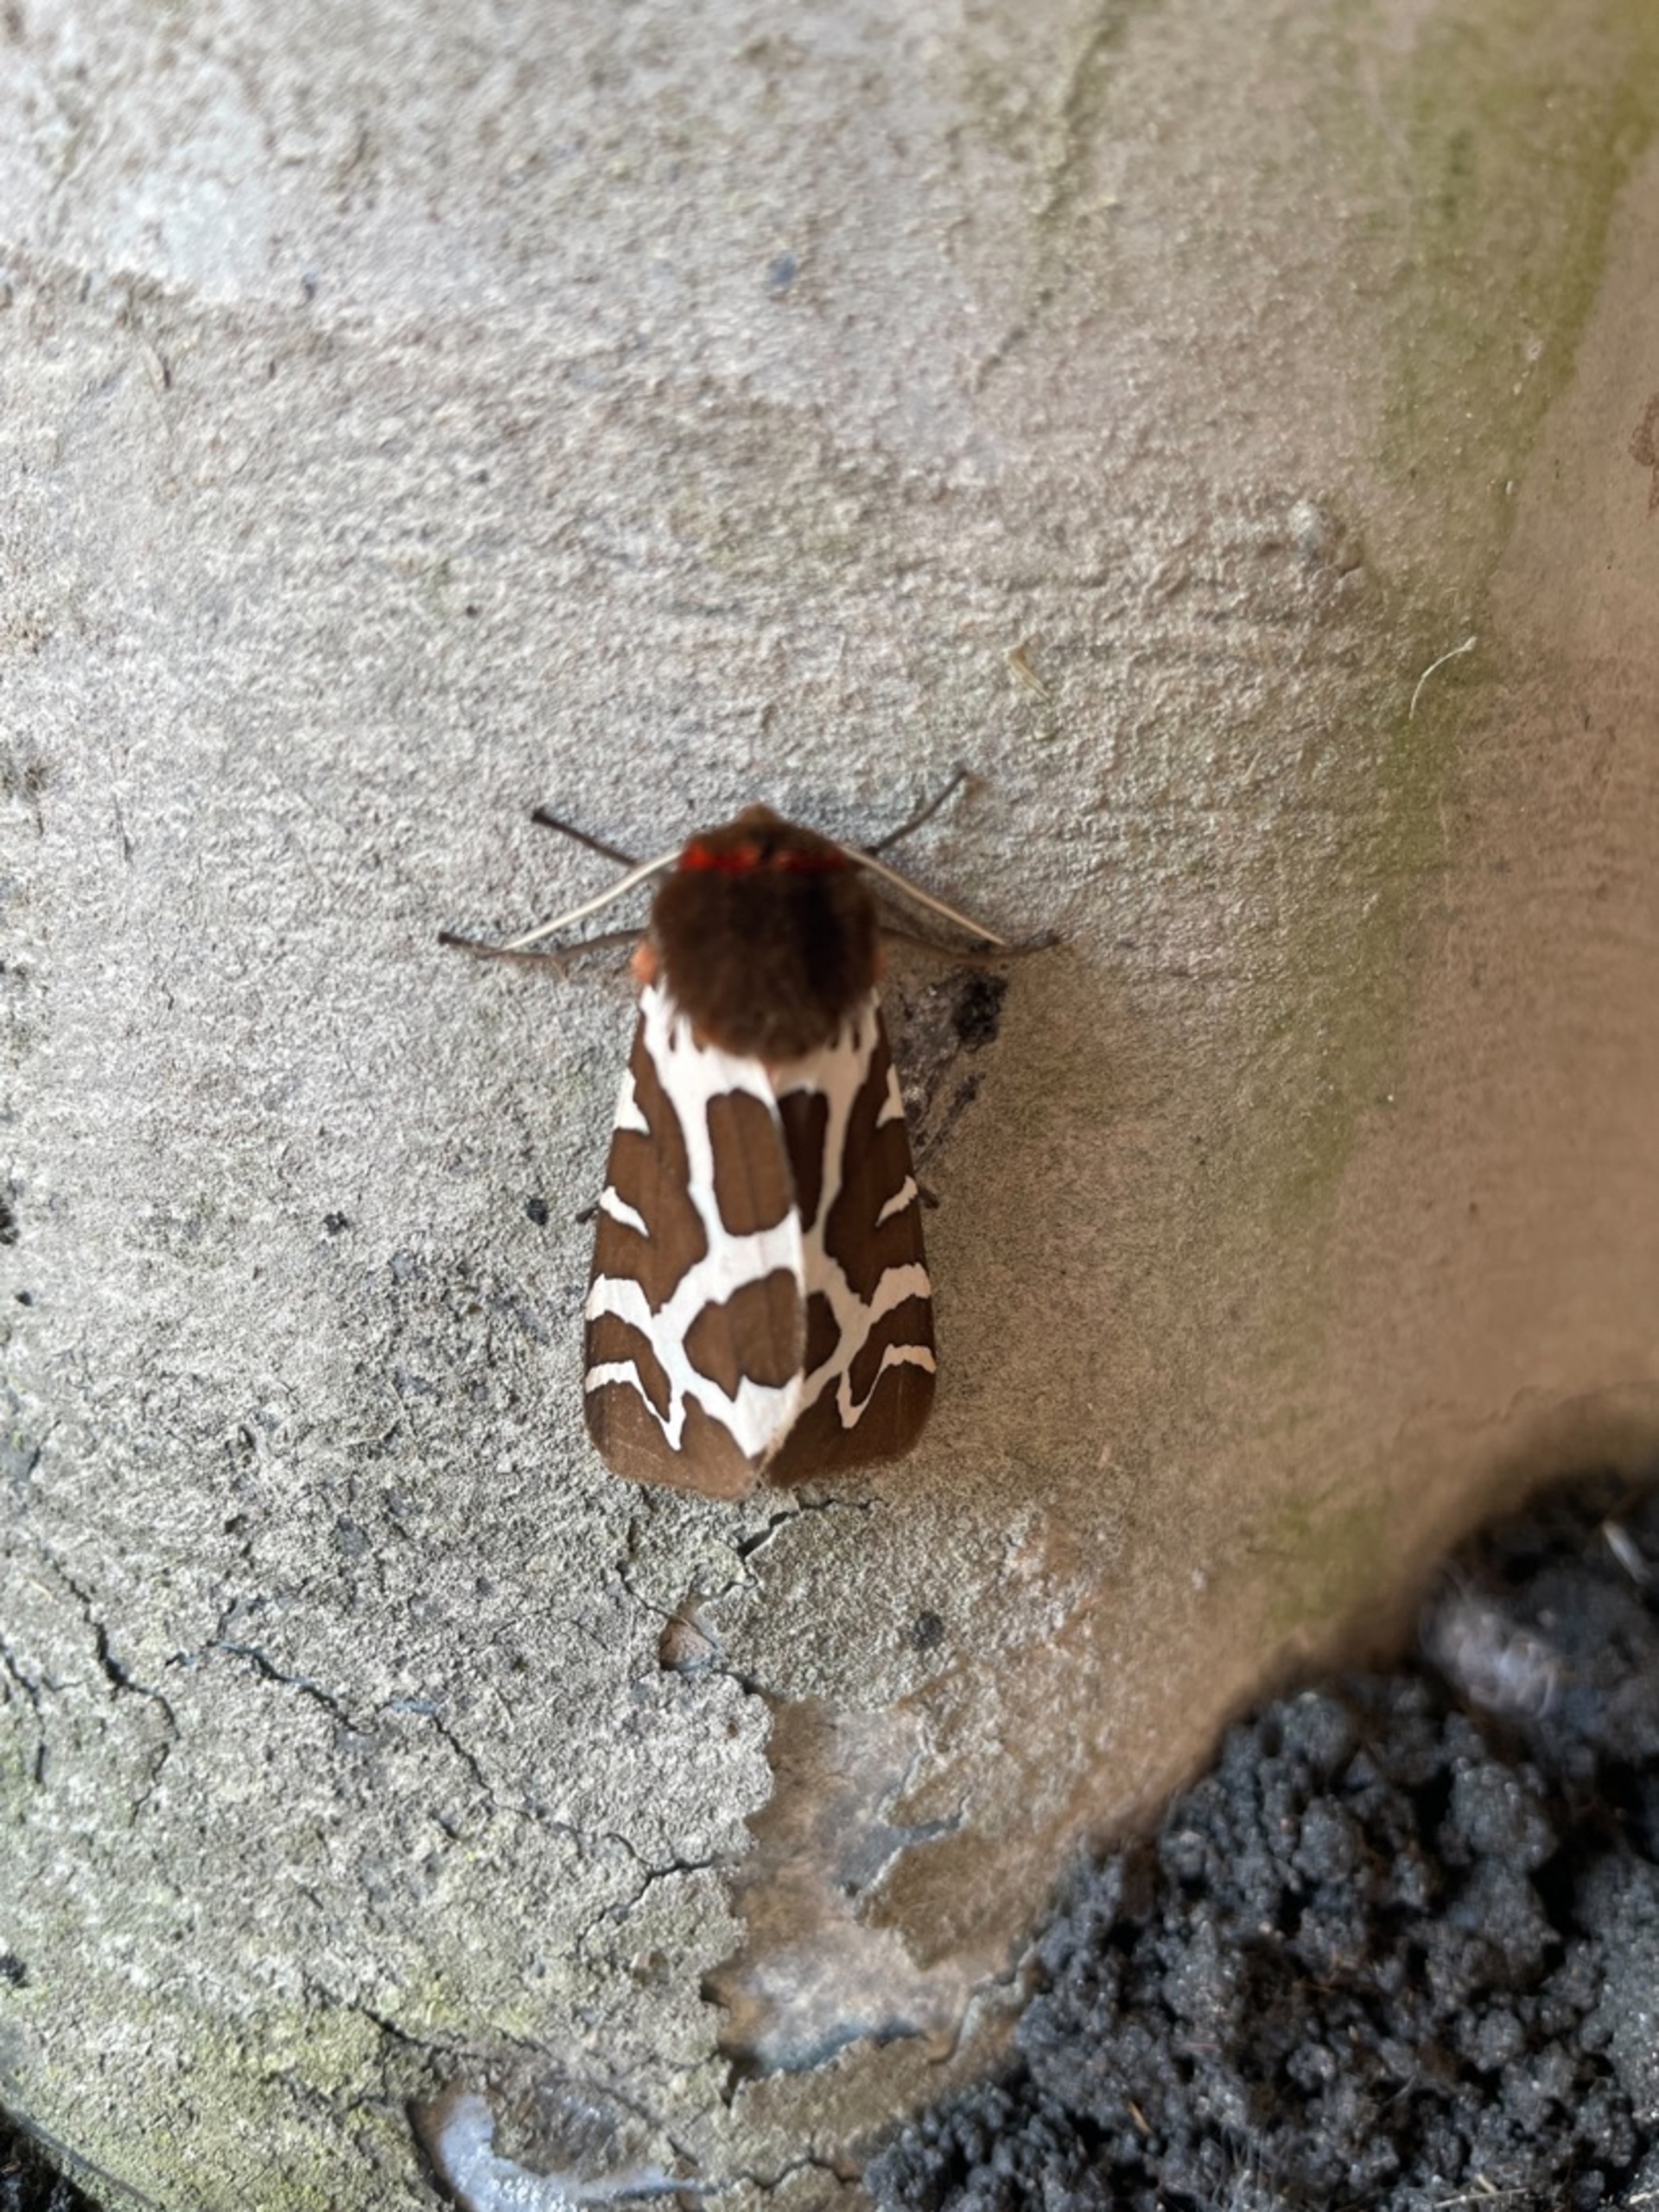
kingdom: Animalia
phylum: Arthropoda
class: Insecta
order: Lepidoptera
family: Erebidae
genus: Arctia
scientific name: Arctia caja
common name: Brun bjørn
